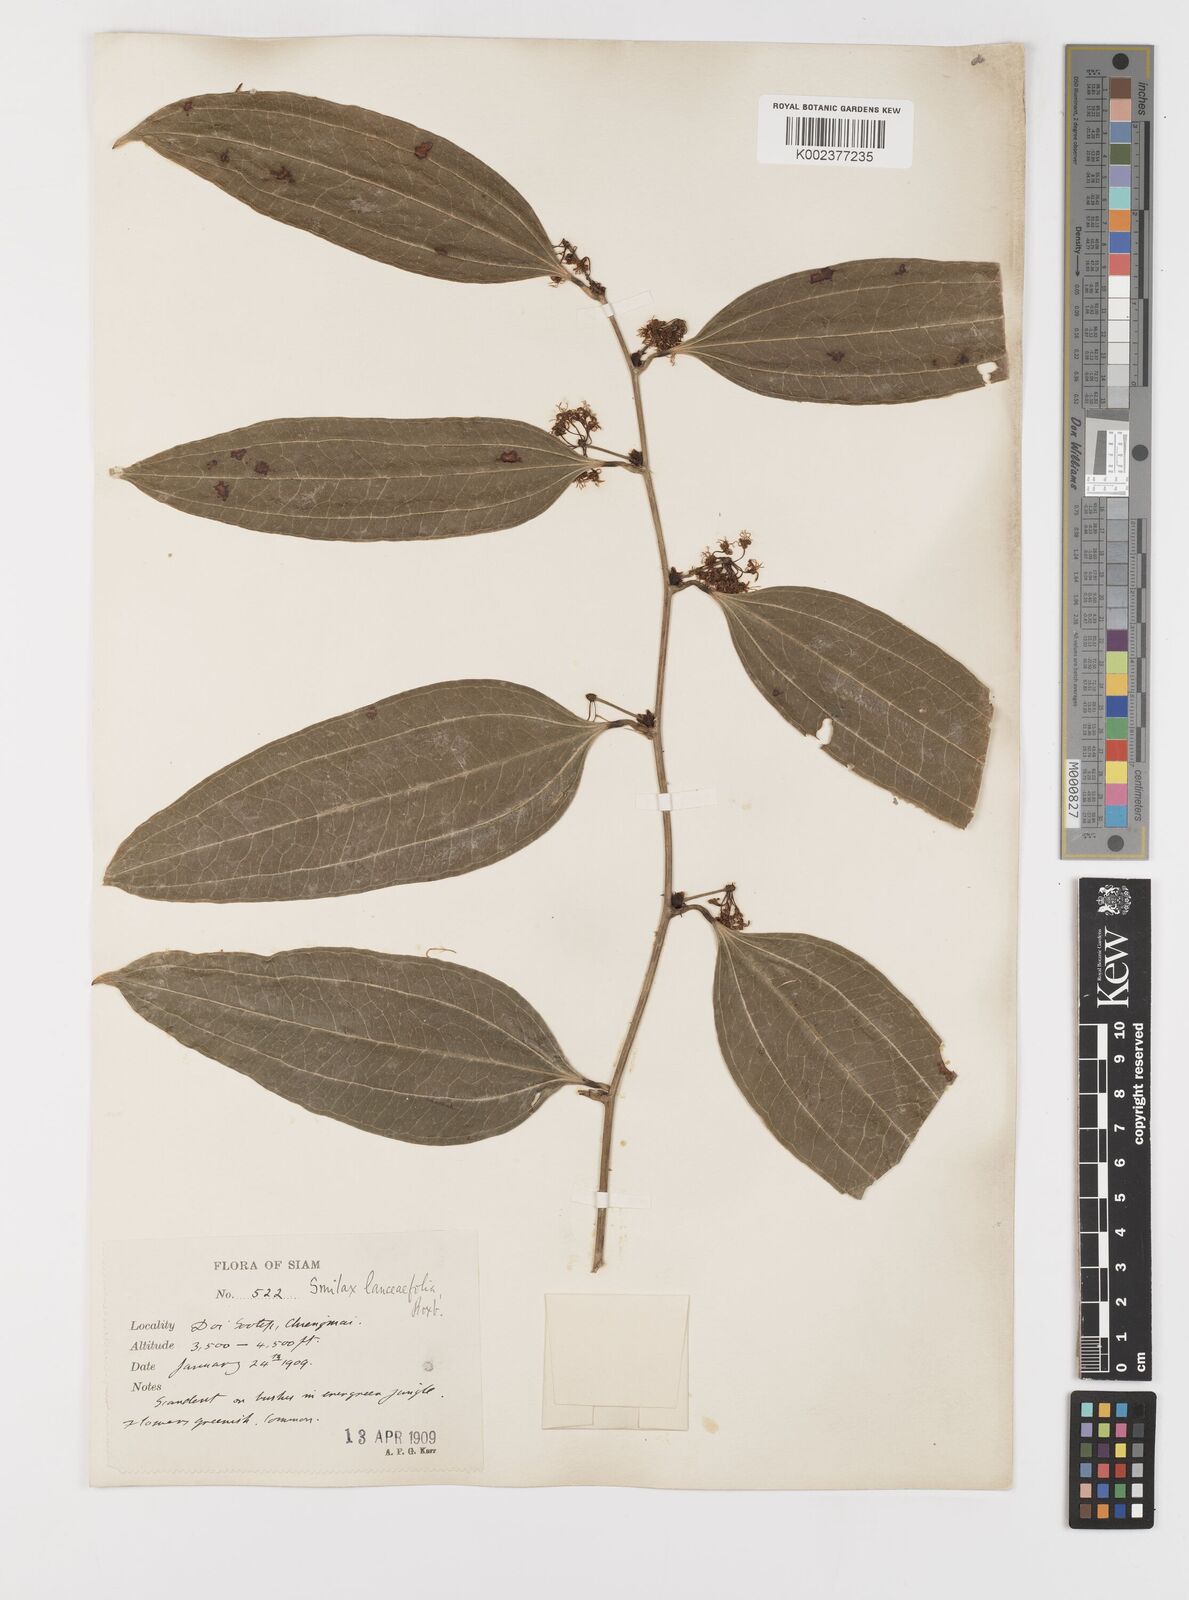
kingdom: Plantae
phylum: Tracheophyta
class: Liliopsida
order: Liliales
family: Smilacaceae
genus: Smilax
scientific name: Smilax lanceifolia
